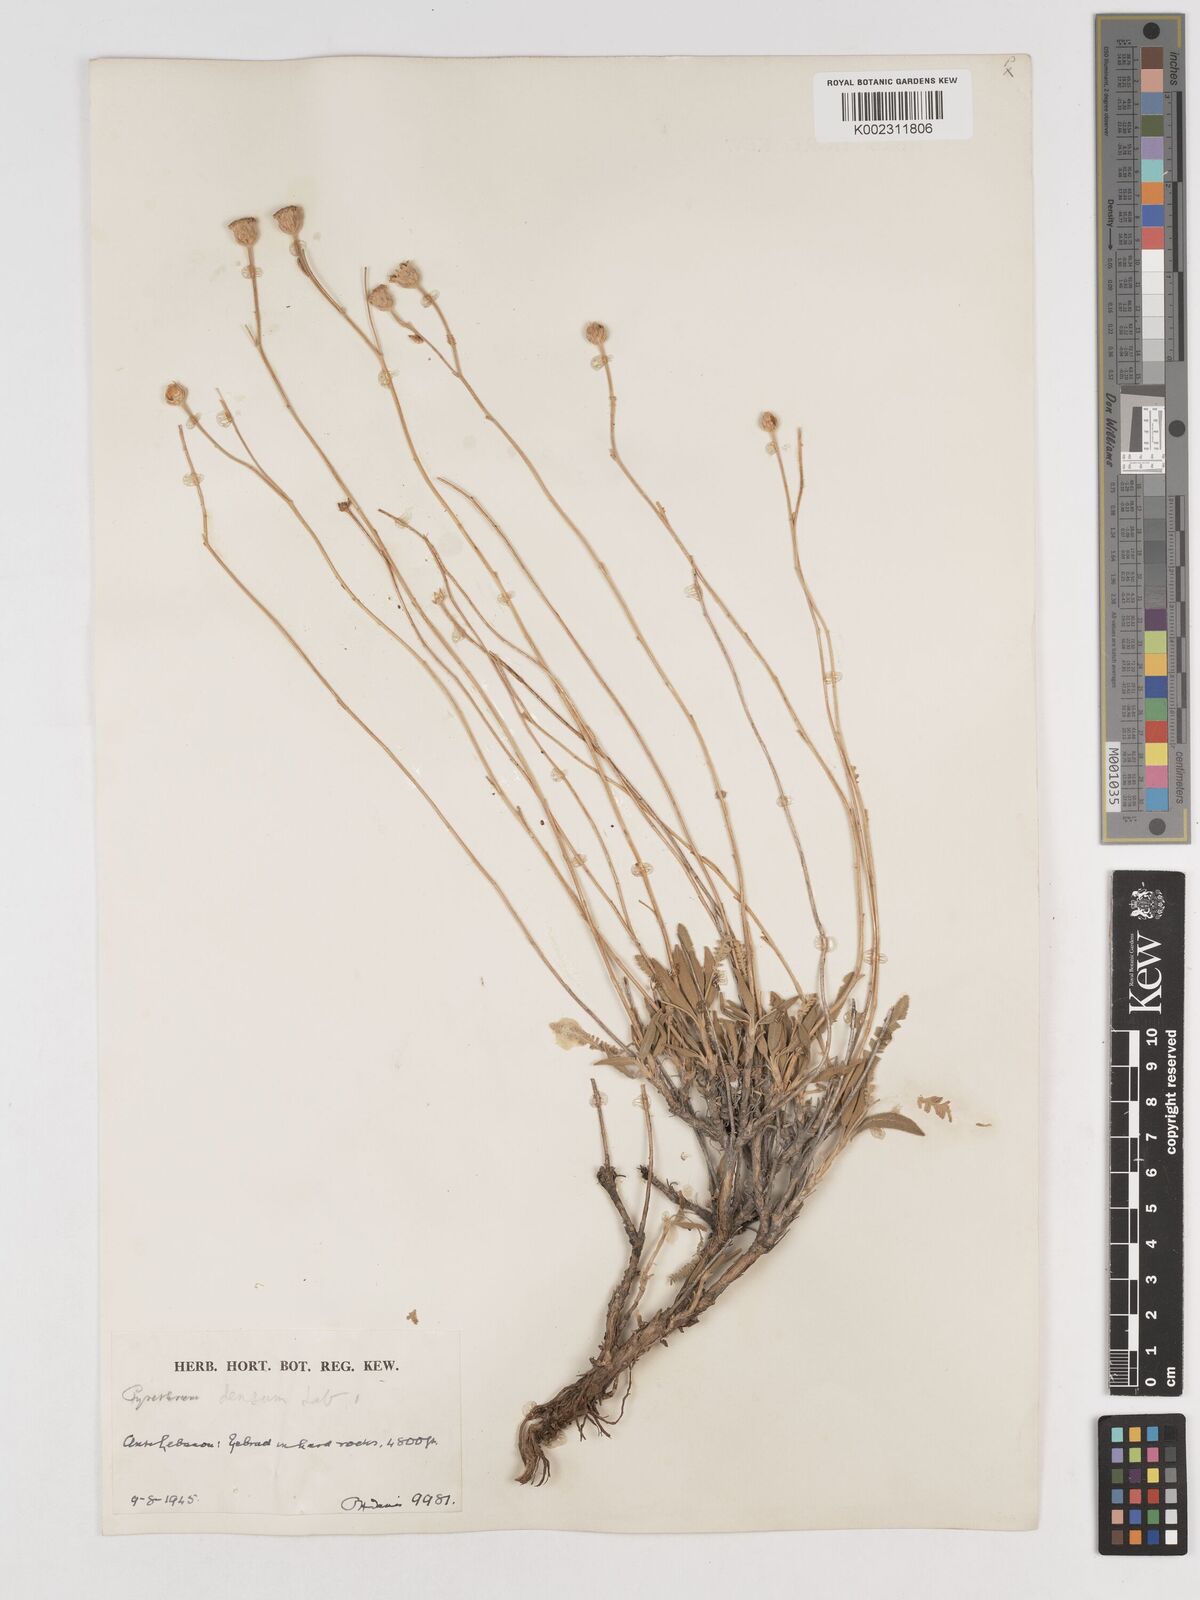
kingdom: Plantae
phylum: Tracheophyta
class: Magnoliopsida
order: Asterales
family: Asteraceae
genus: Tanacetum
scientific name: Tanacetum densum
